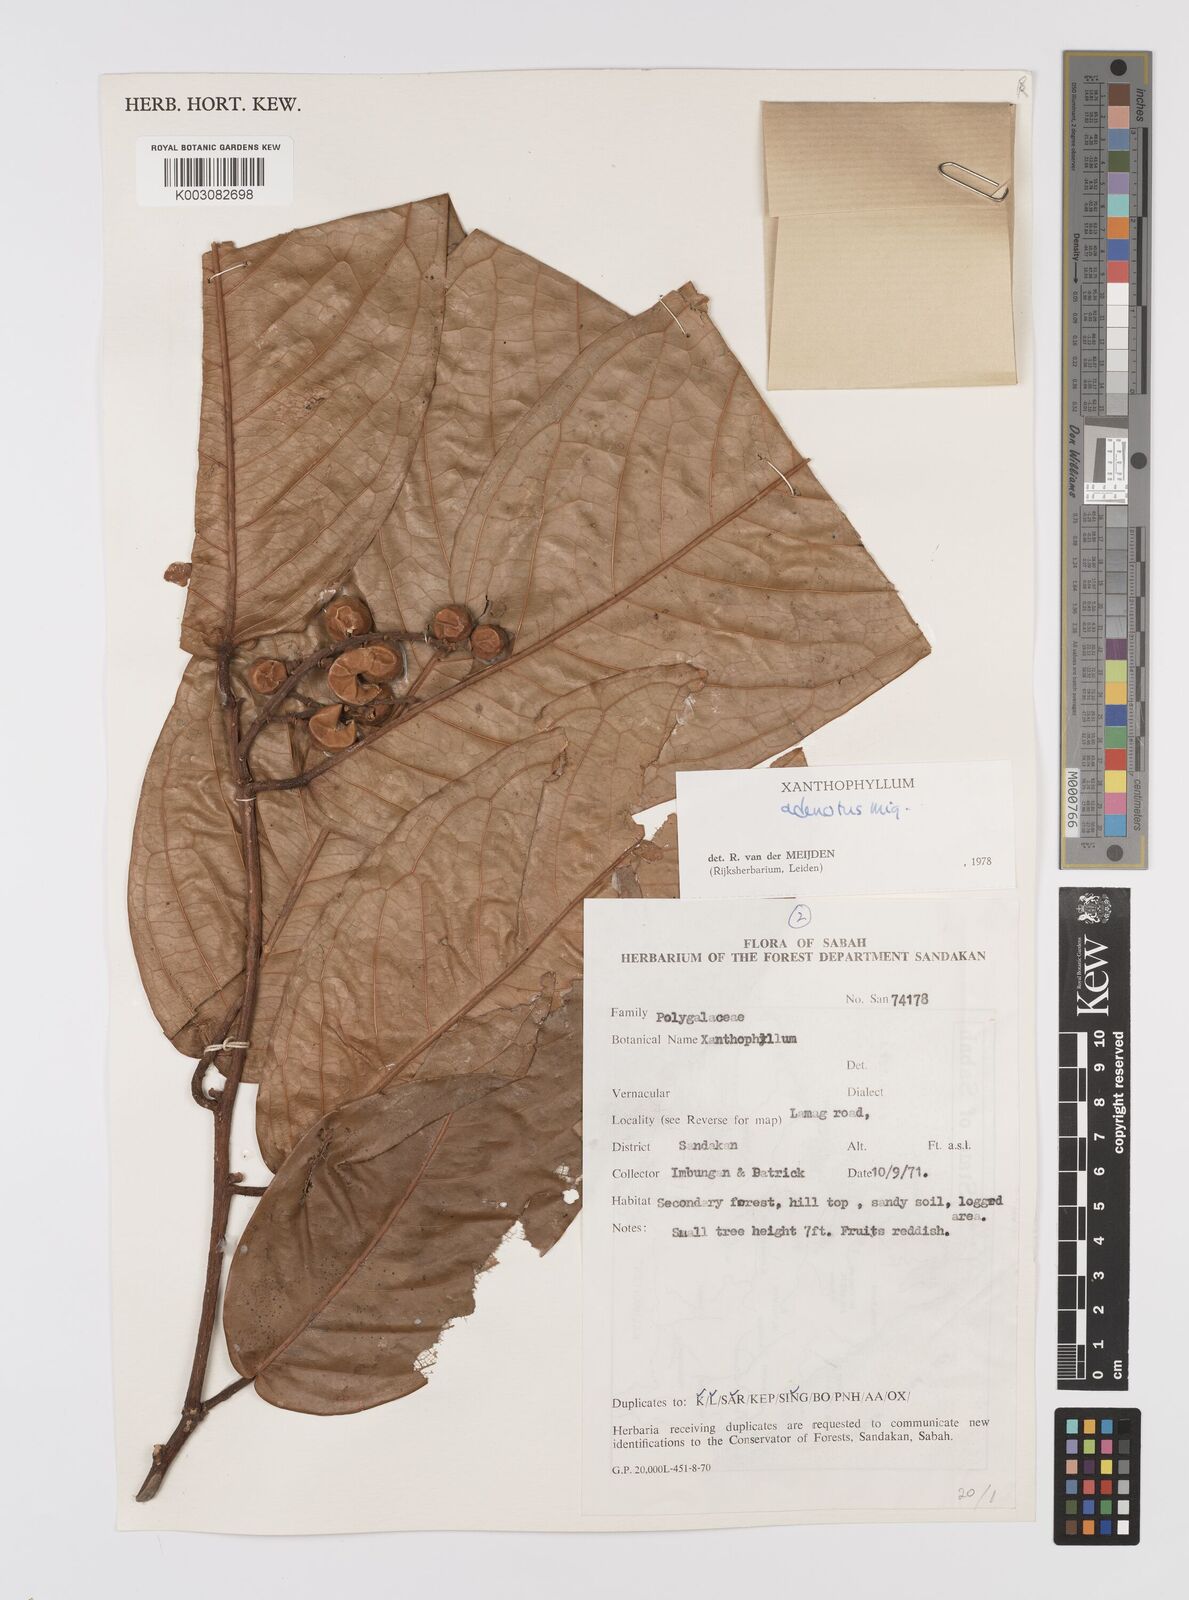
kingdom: Plantae
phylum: Tracheophyta
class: Magnoliopsida
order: Fabales
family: Polygalaceae
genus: Xanthophyllum
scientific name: Xanthophyllum adenotus
